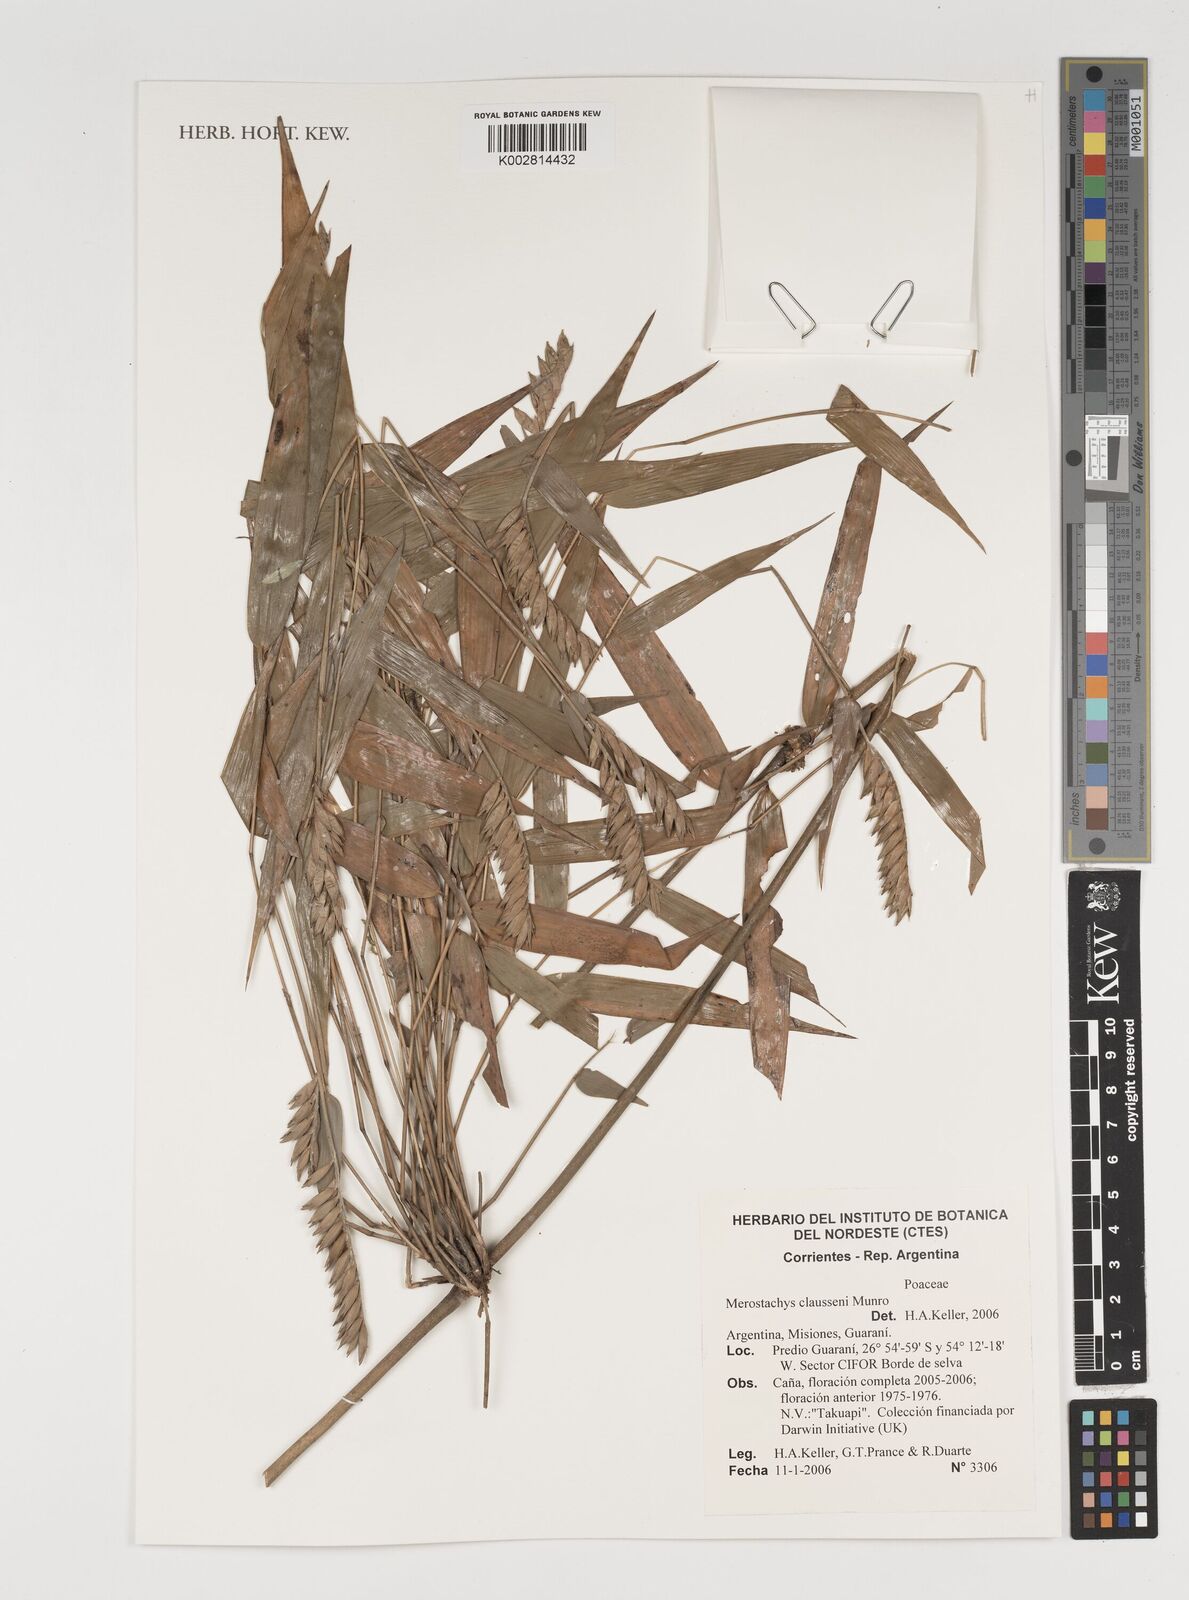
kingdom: Plantae
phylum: Tracheophyta
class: Liliopsida
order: Poales
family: Poaceae
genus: Merostachys
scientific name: Merostachys claussenii
